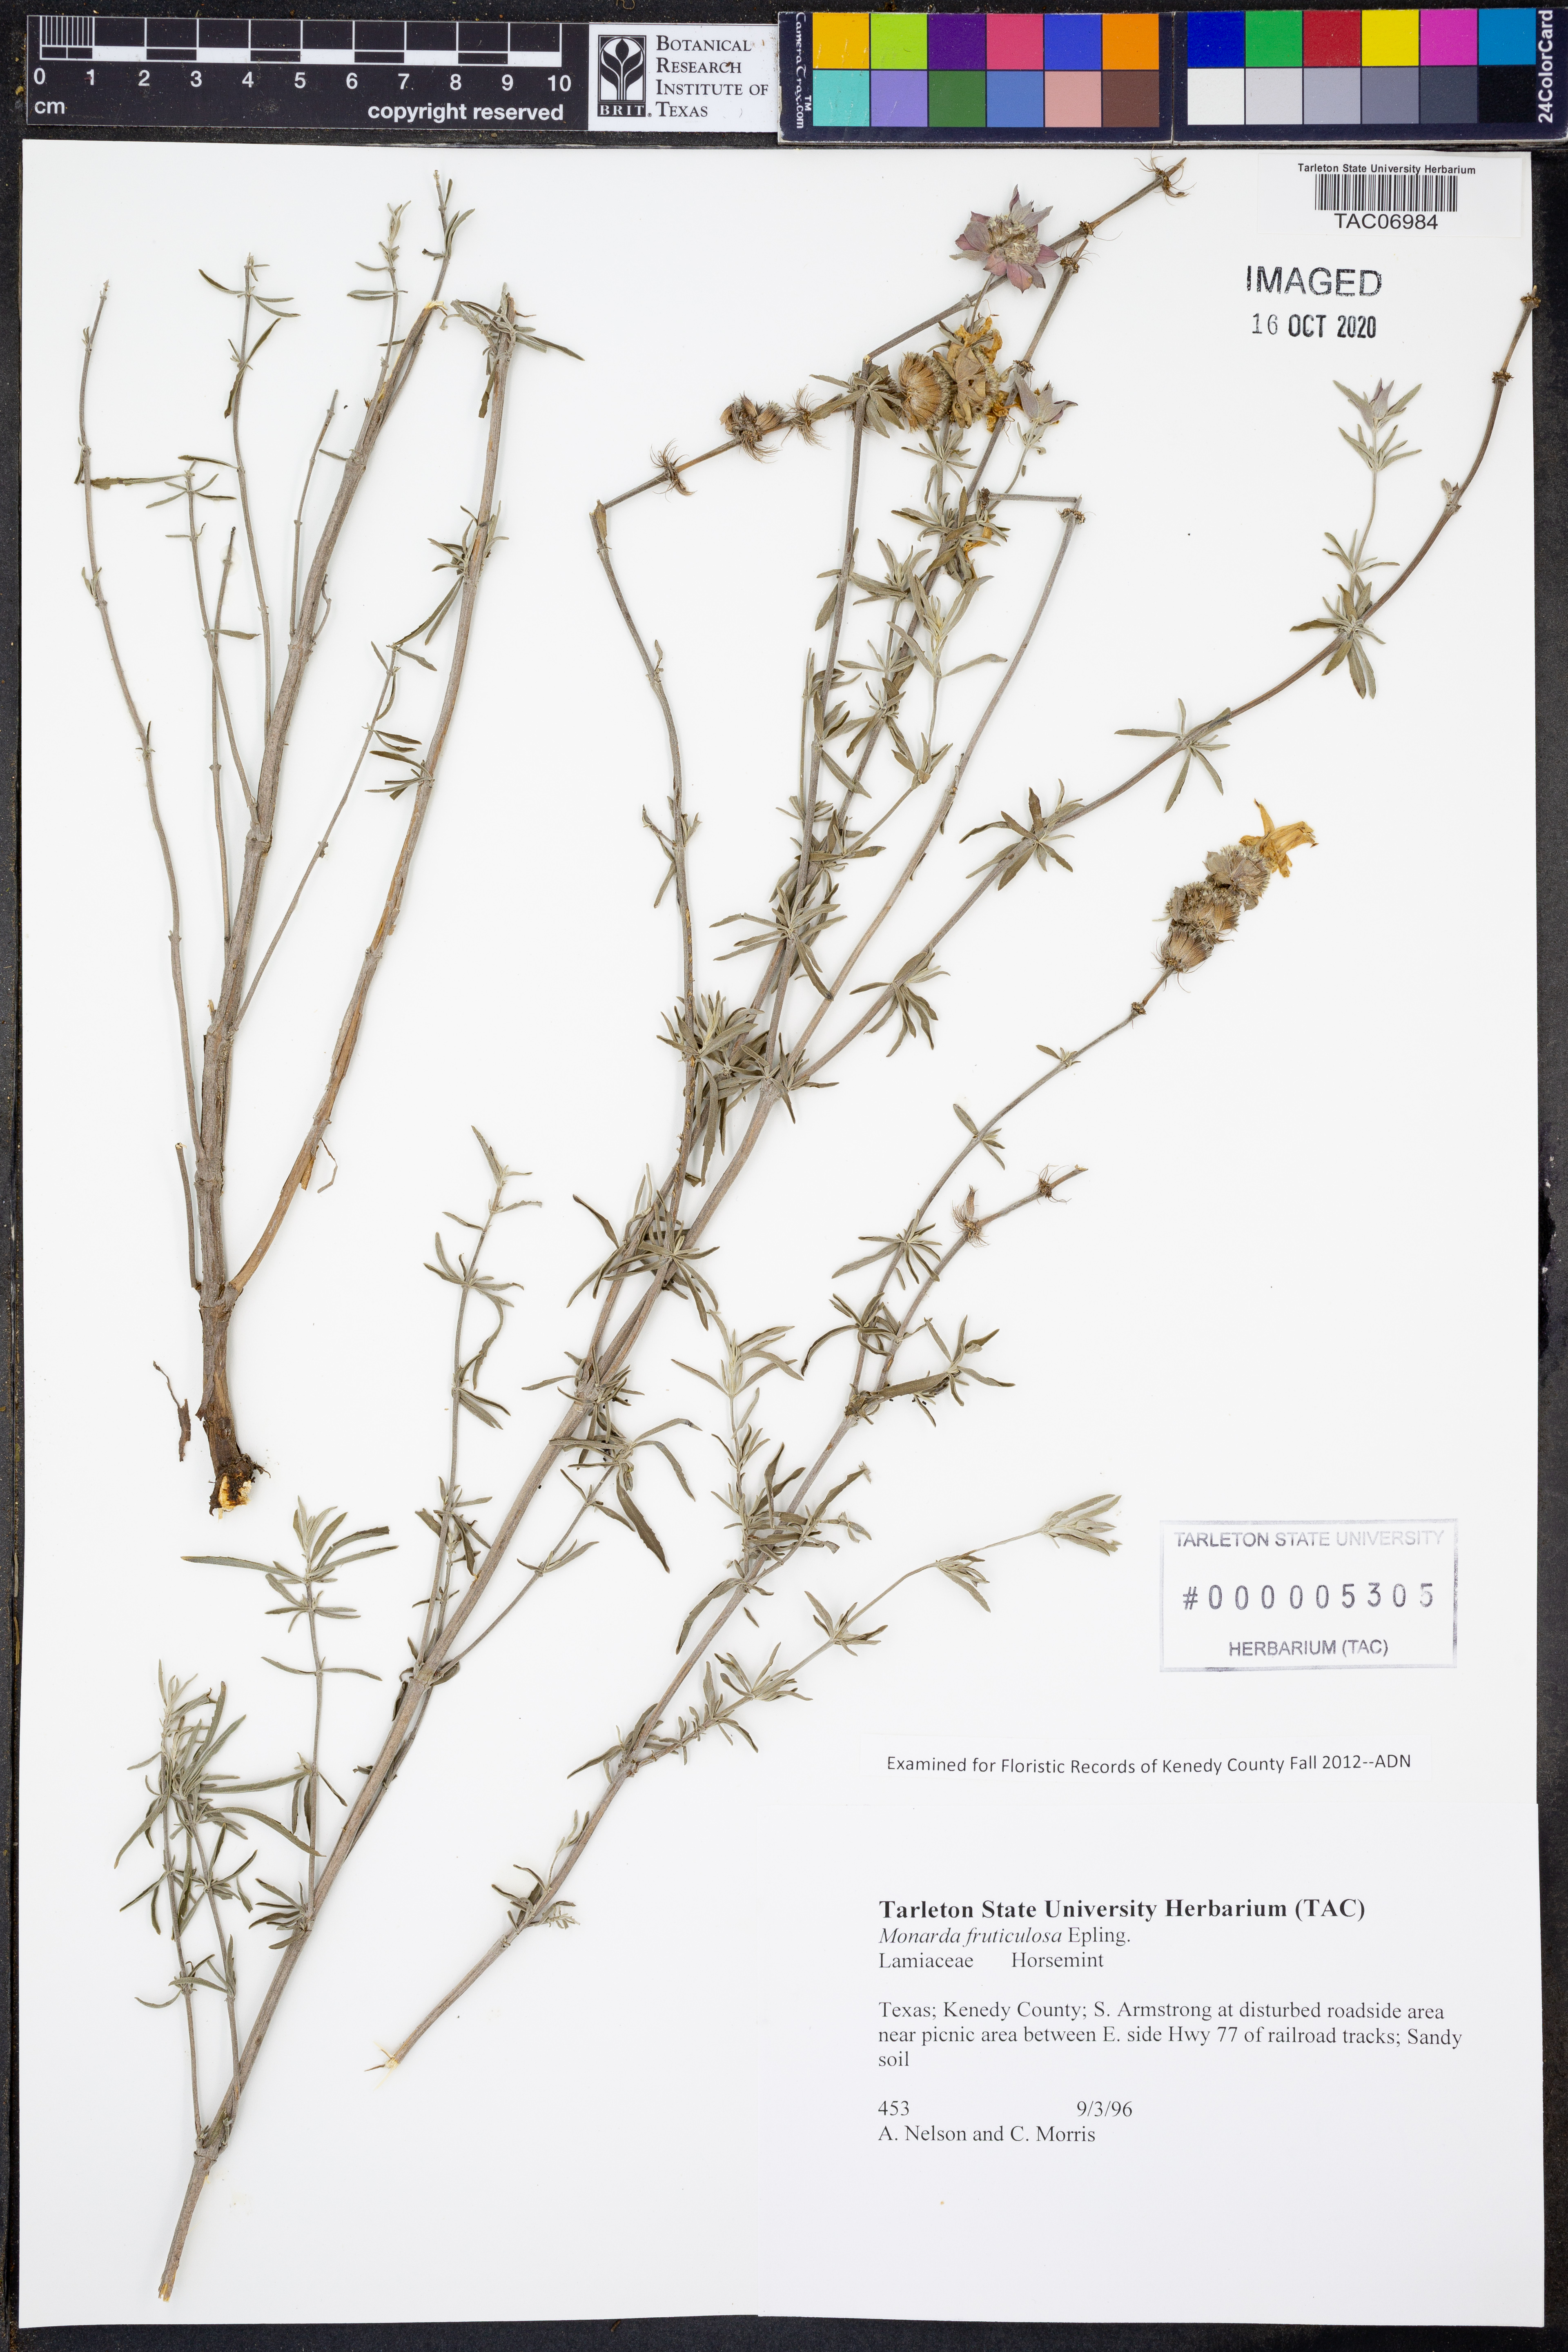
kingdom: Plantae
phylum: Tracheophyta
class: Magnoliopsida
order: Lamiales
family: Lamiaceae
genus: Monarda
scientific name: Monarda fruticulosa
